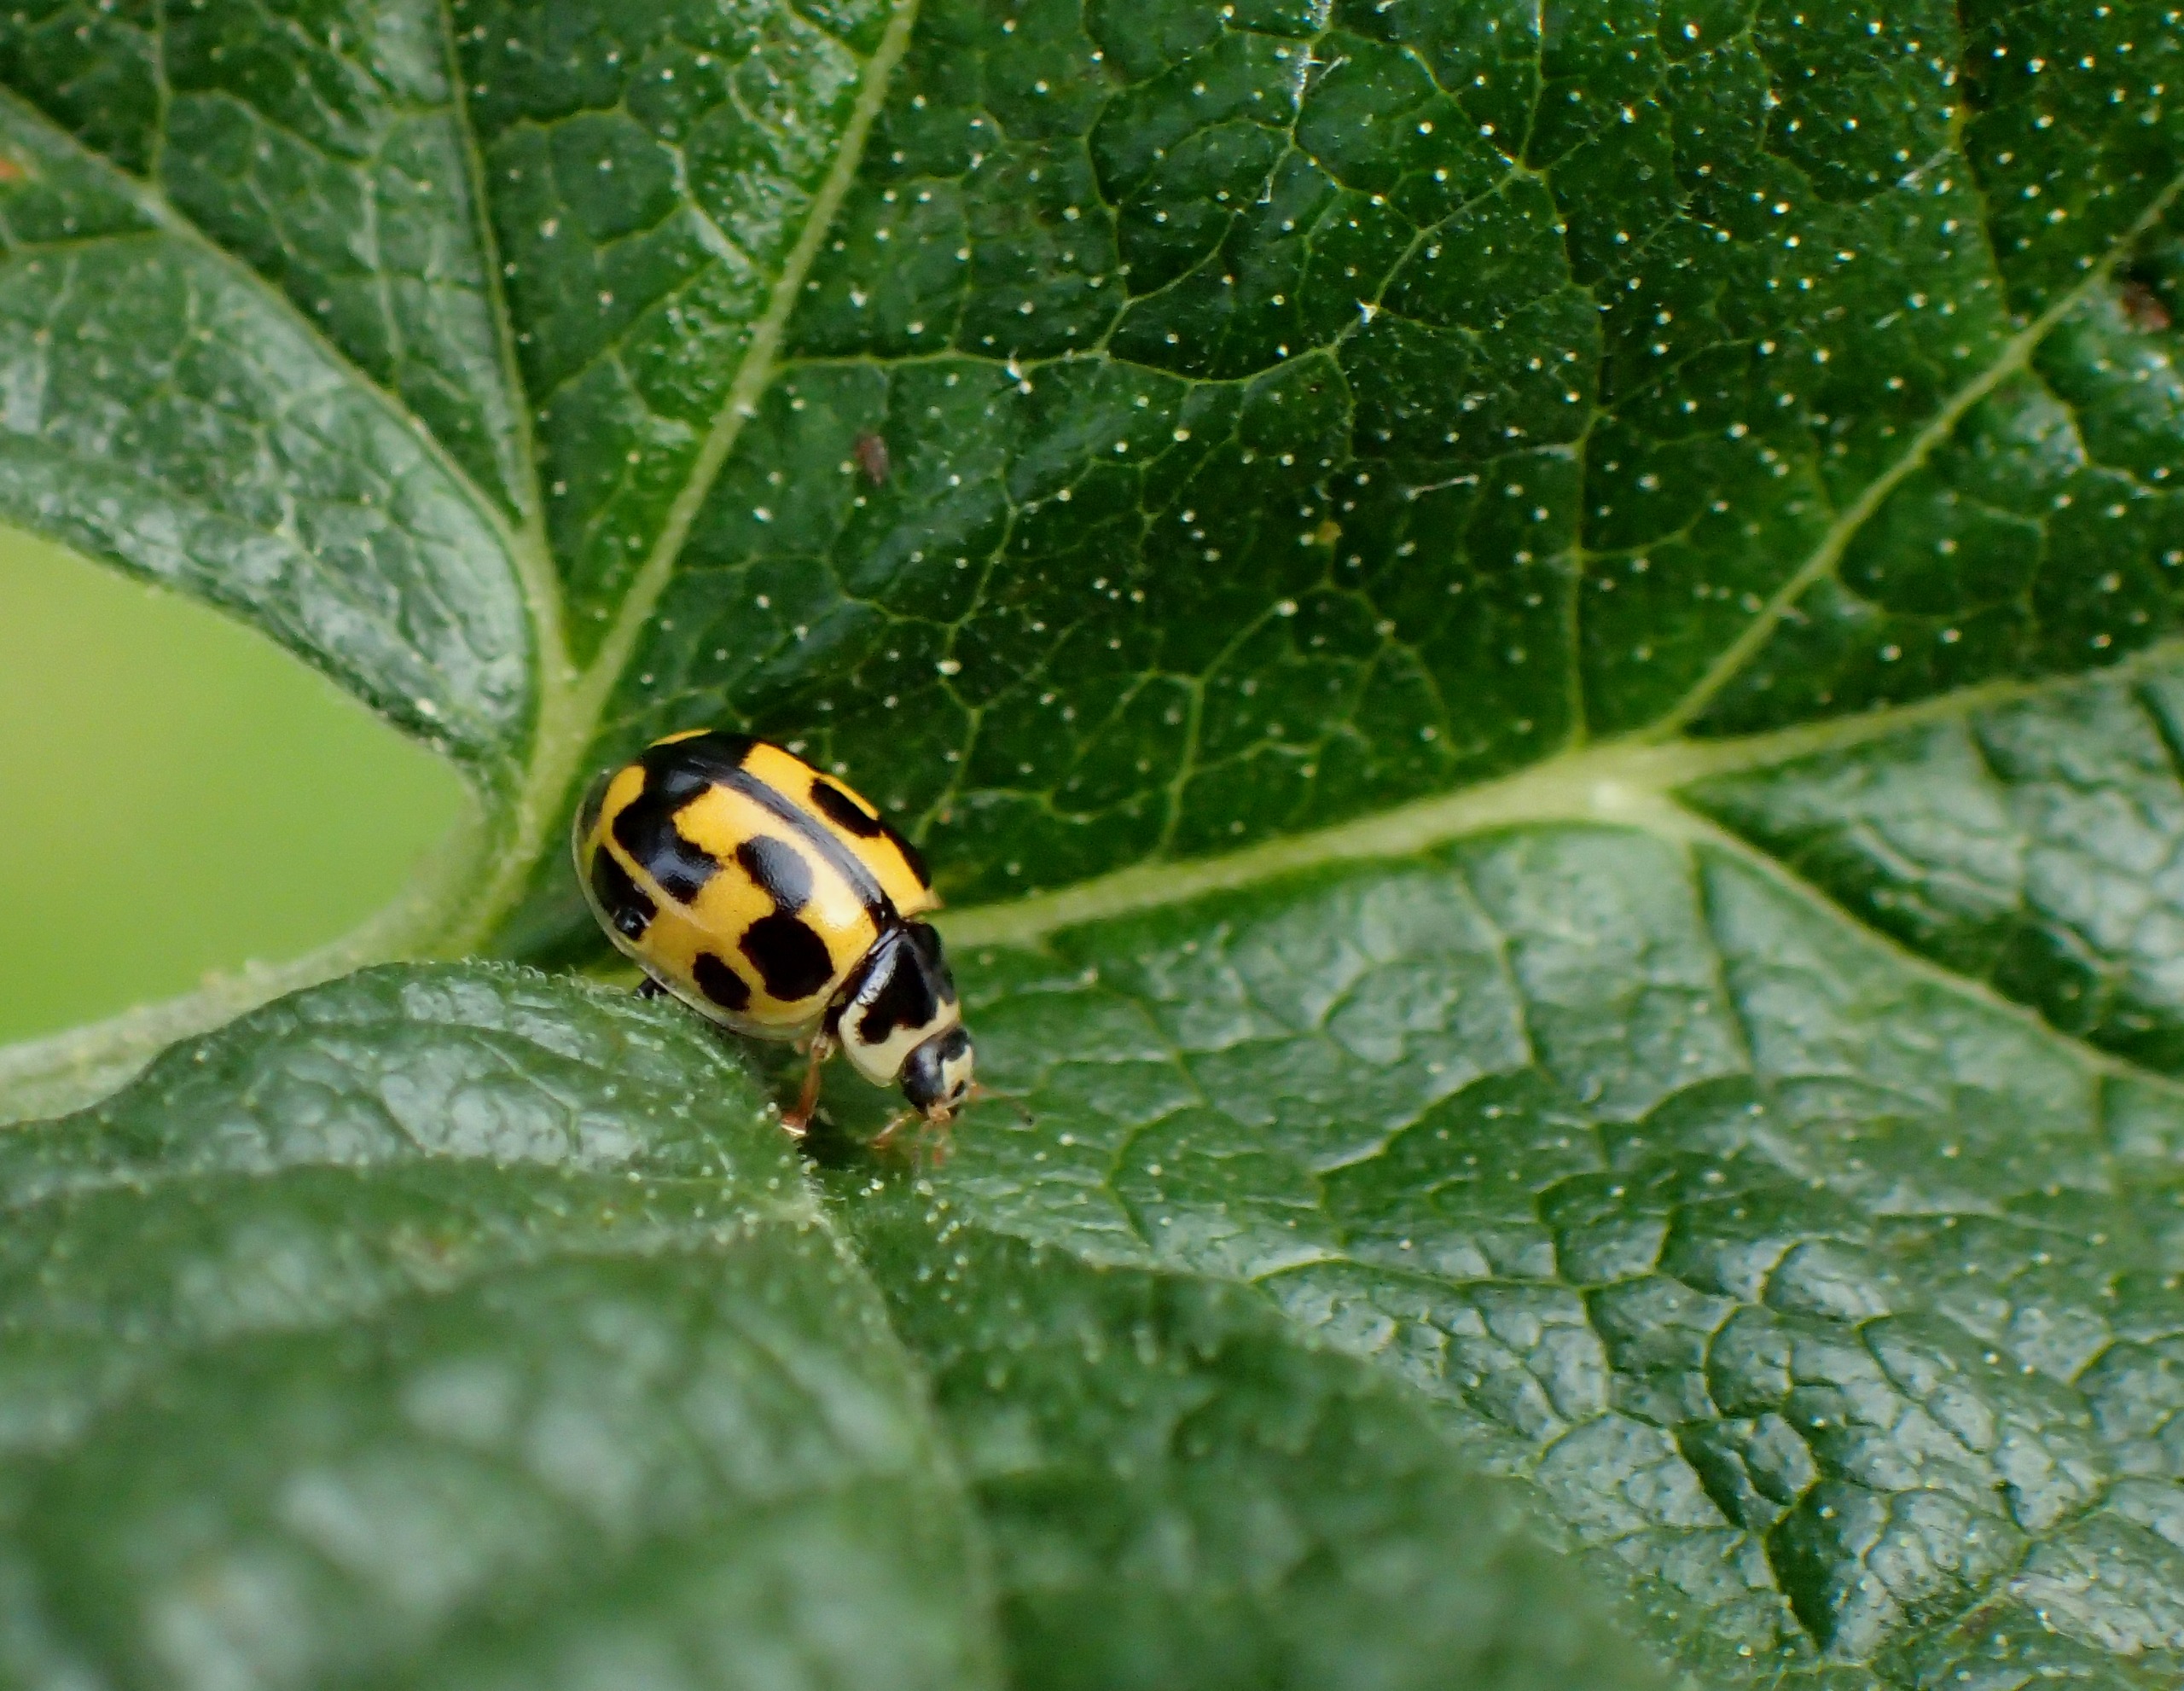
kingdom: Animalia
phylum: Arthropoda
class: Insecta
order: Coleoptera
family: Coccinellidae
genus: Propylaea
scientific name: Propylaea quatuordecimpunctata
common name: Skakbræt
